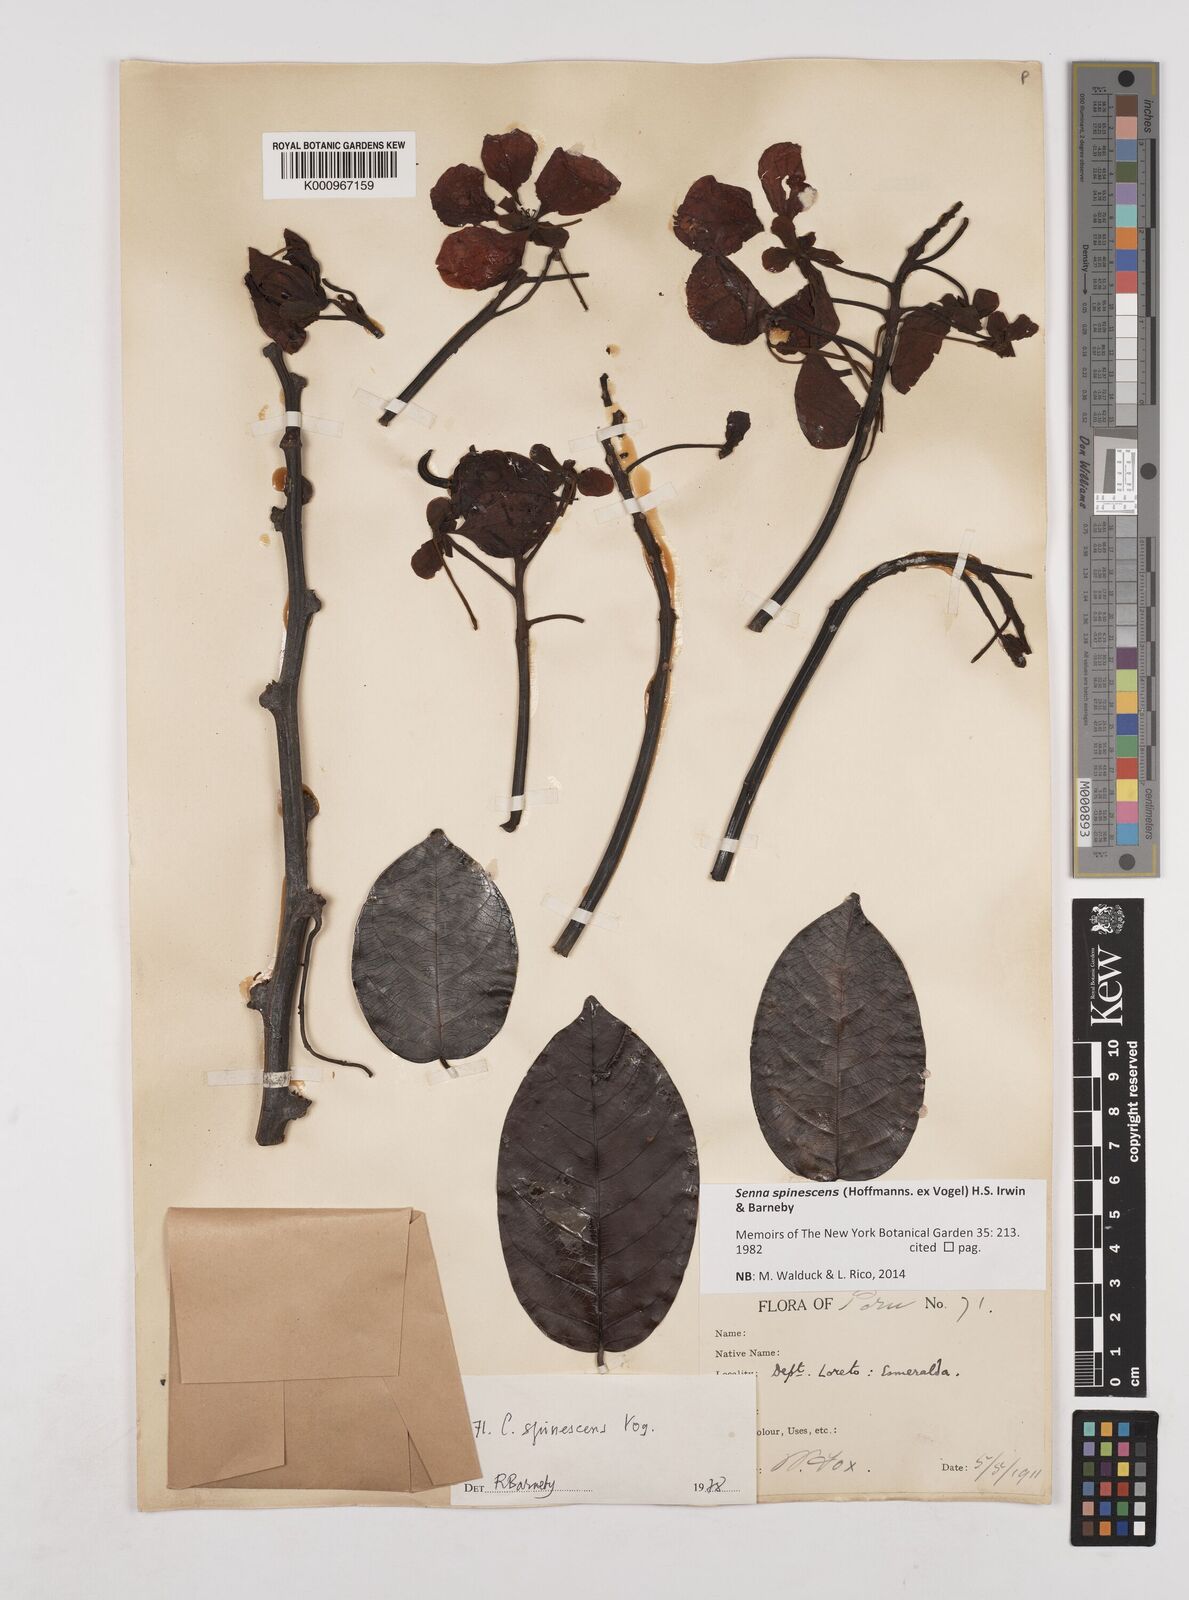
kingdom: Plantae
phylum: Tracheophyta
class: Magnoliopsida
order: Fabales
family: Fabaceae
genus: Senna
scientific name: Senna spinescens
